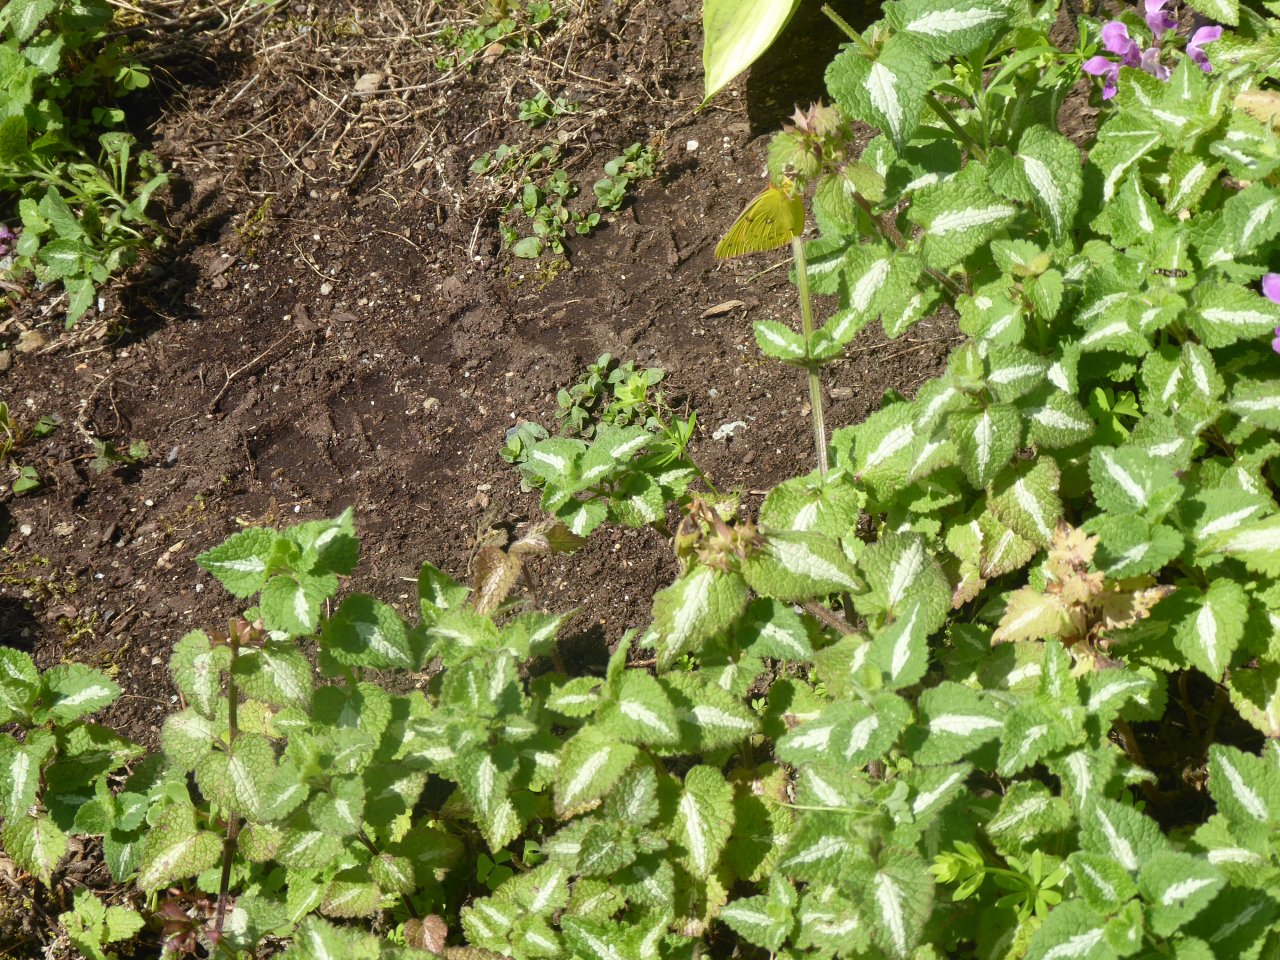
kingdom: Animalia
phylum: Arthropoda
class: Insecta
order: Lepidoptera
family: Pieridae
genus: Colias
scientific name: Colias philodice
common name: Clouded Sulphur
